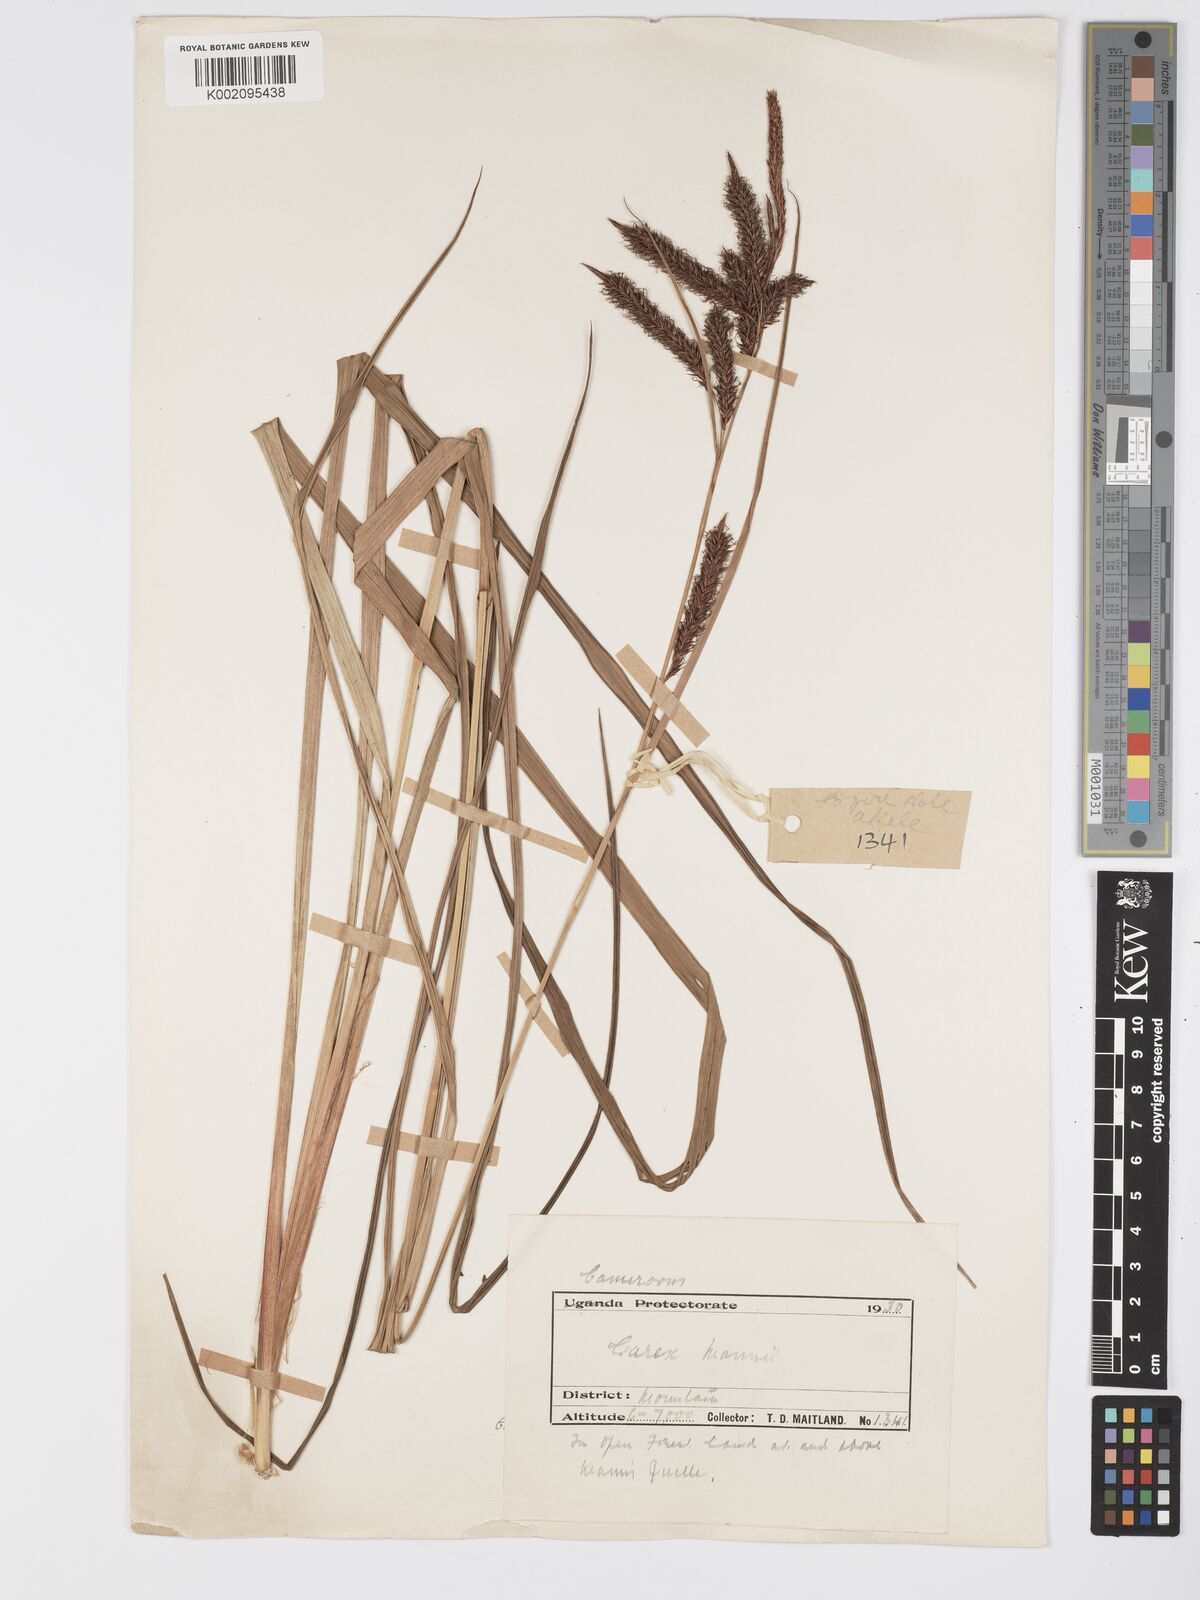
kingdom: Plantae
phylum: Tracheophyta
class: Liliopsida
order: Poales
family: Cyperaceae
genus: Carex
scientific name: Carex mannii
